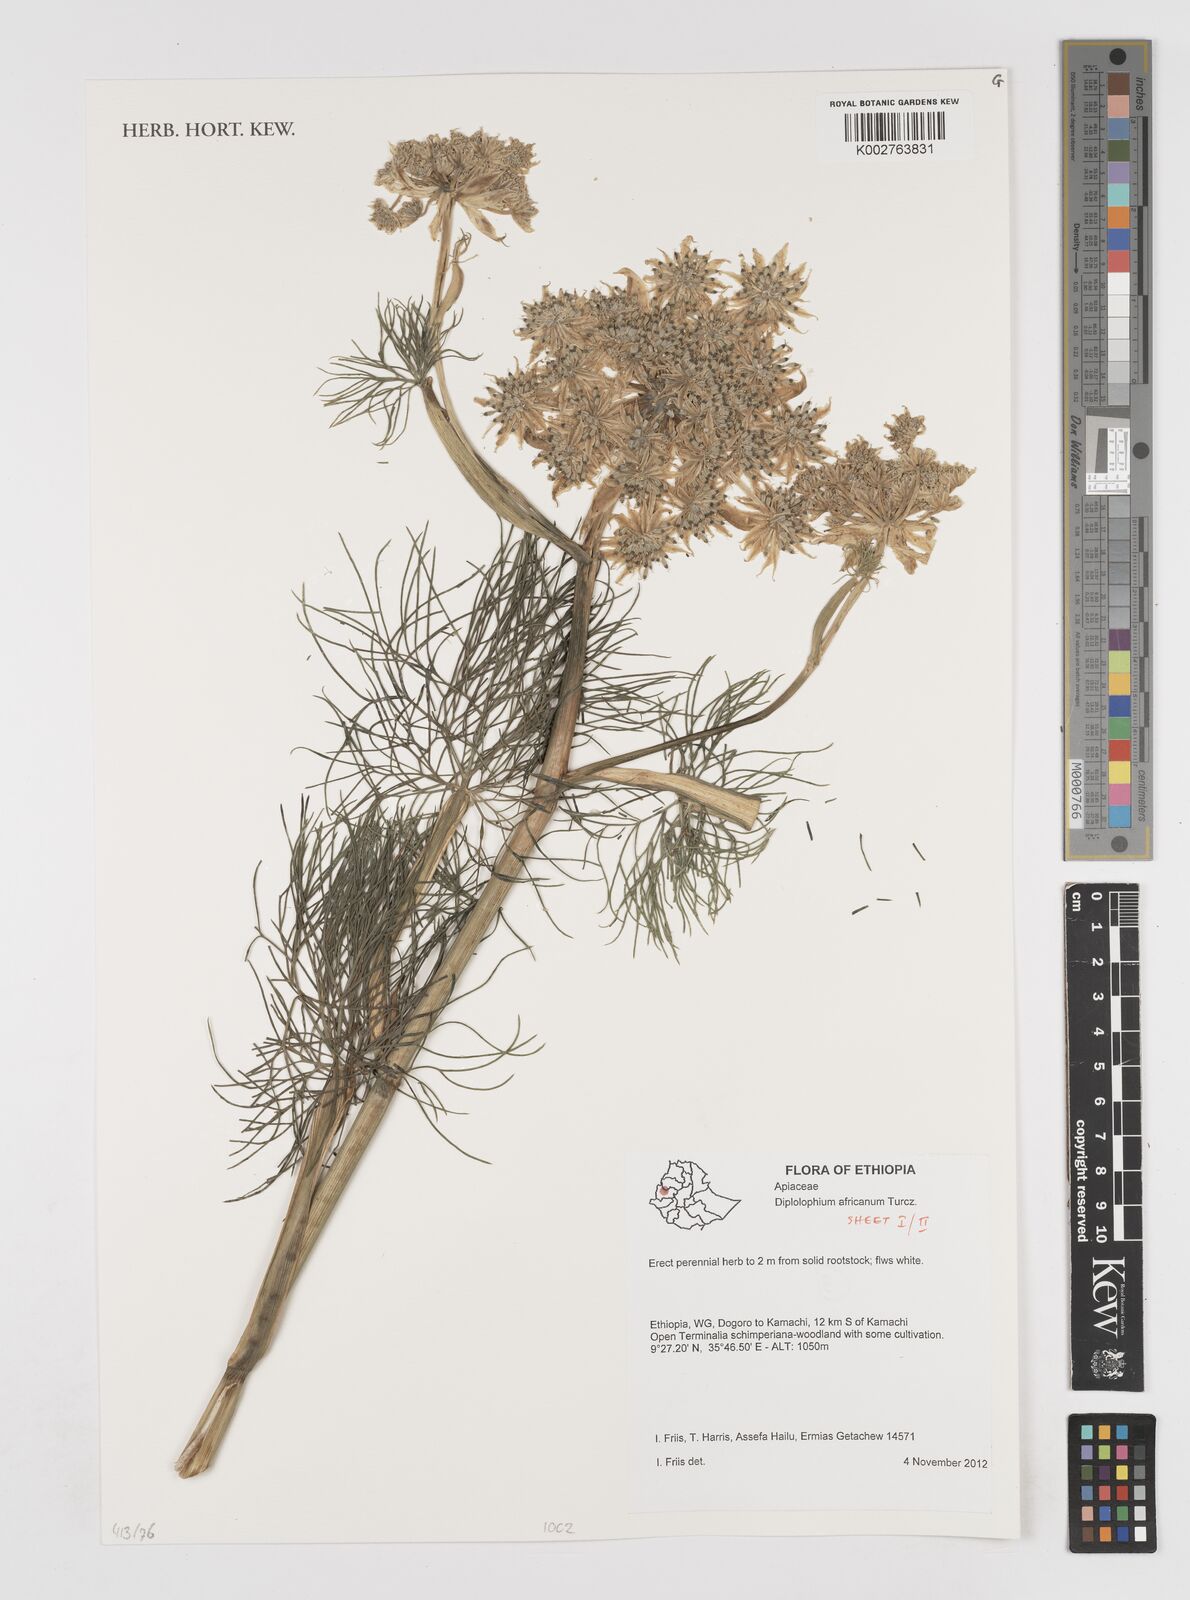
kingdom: Plantae
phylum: Tracheophyta
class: Magnoliopsida
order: Apiales
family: Apiaceae
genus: Diplolophium
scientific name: Diplolophium africanum
